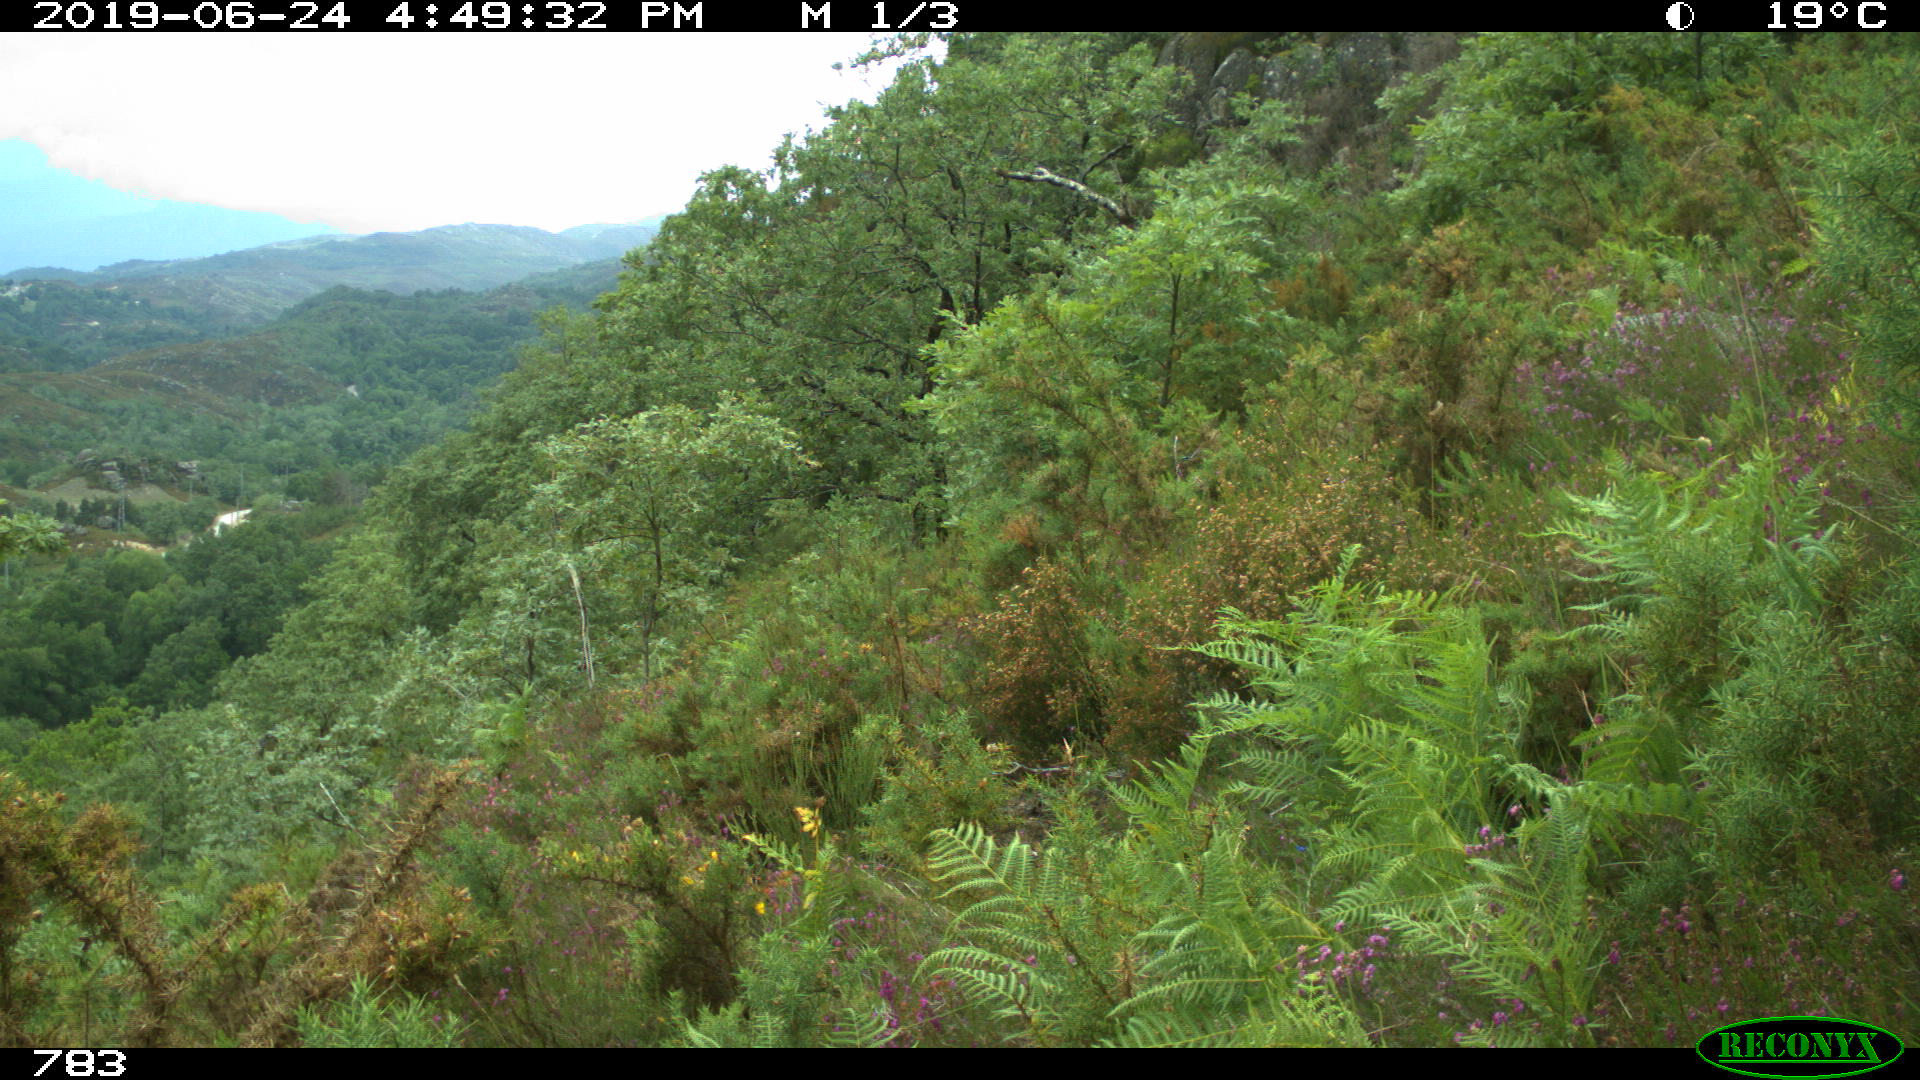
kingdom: Animalia
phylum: Chordata
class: Mammalia
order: Artiodactyla
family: Cervidae
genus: Capreolus
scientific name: Capreolus capreolus
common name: Western roe deer
